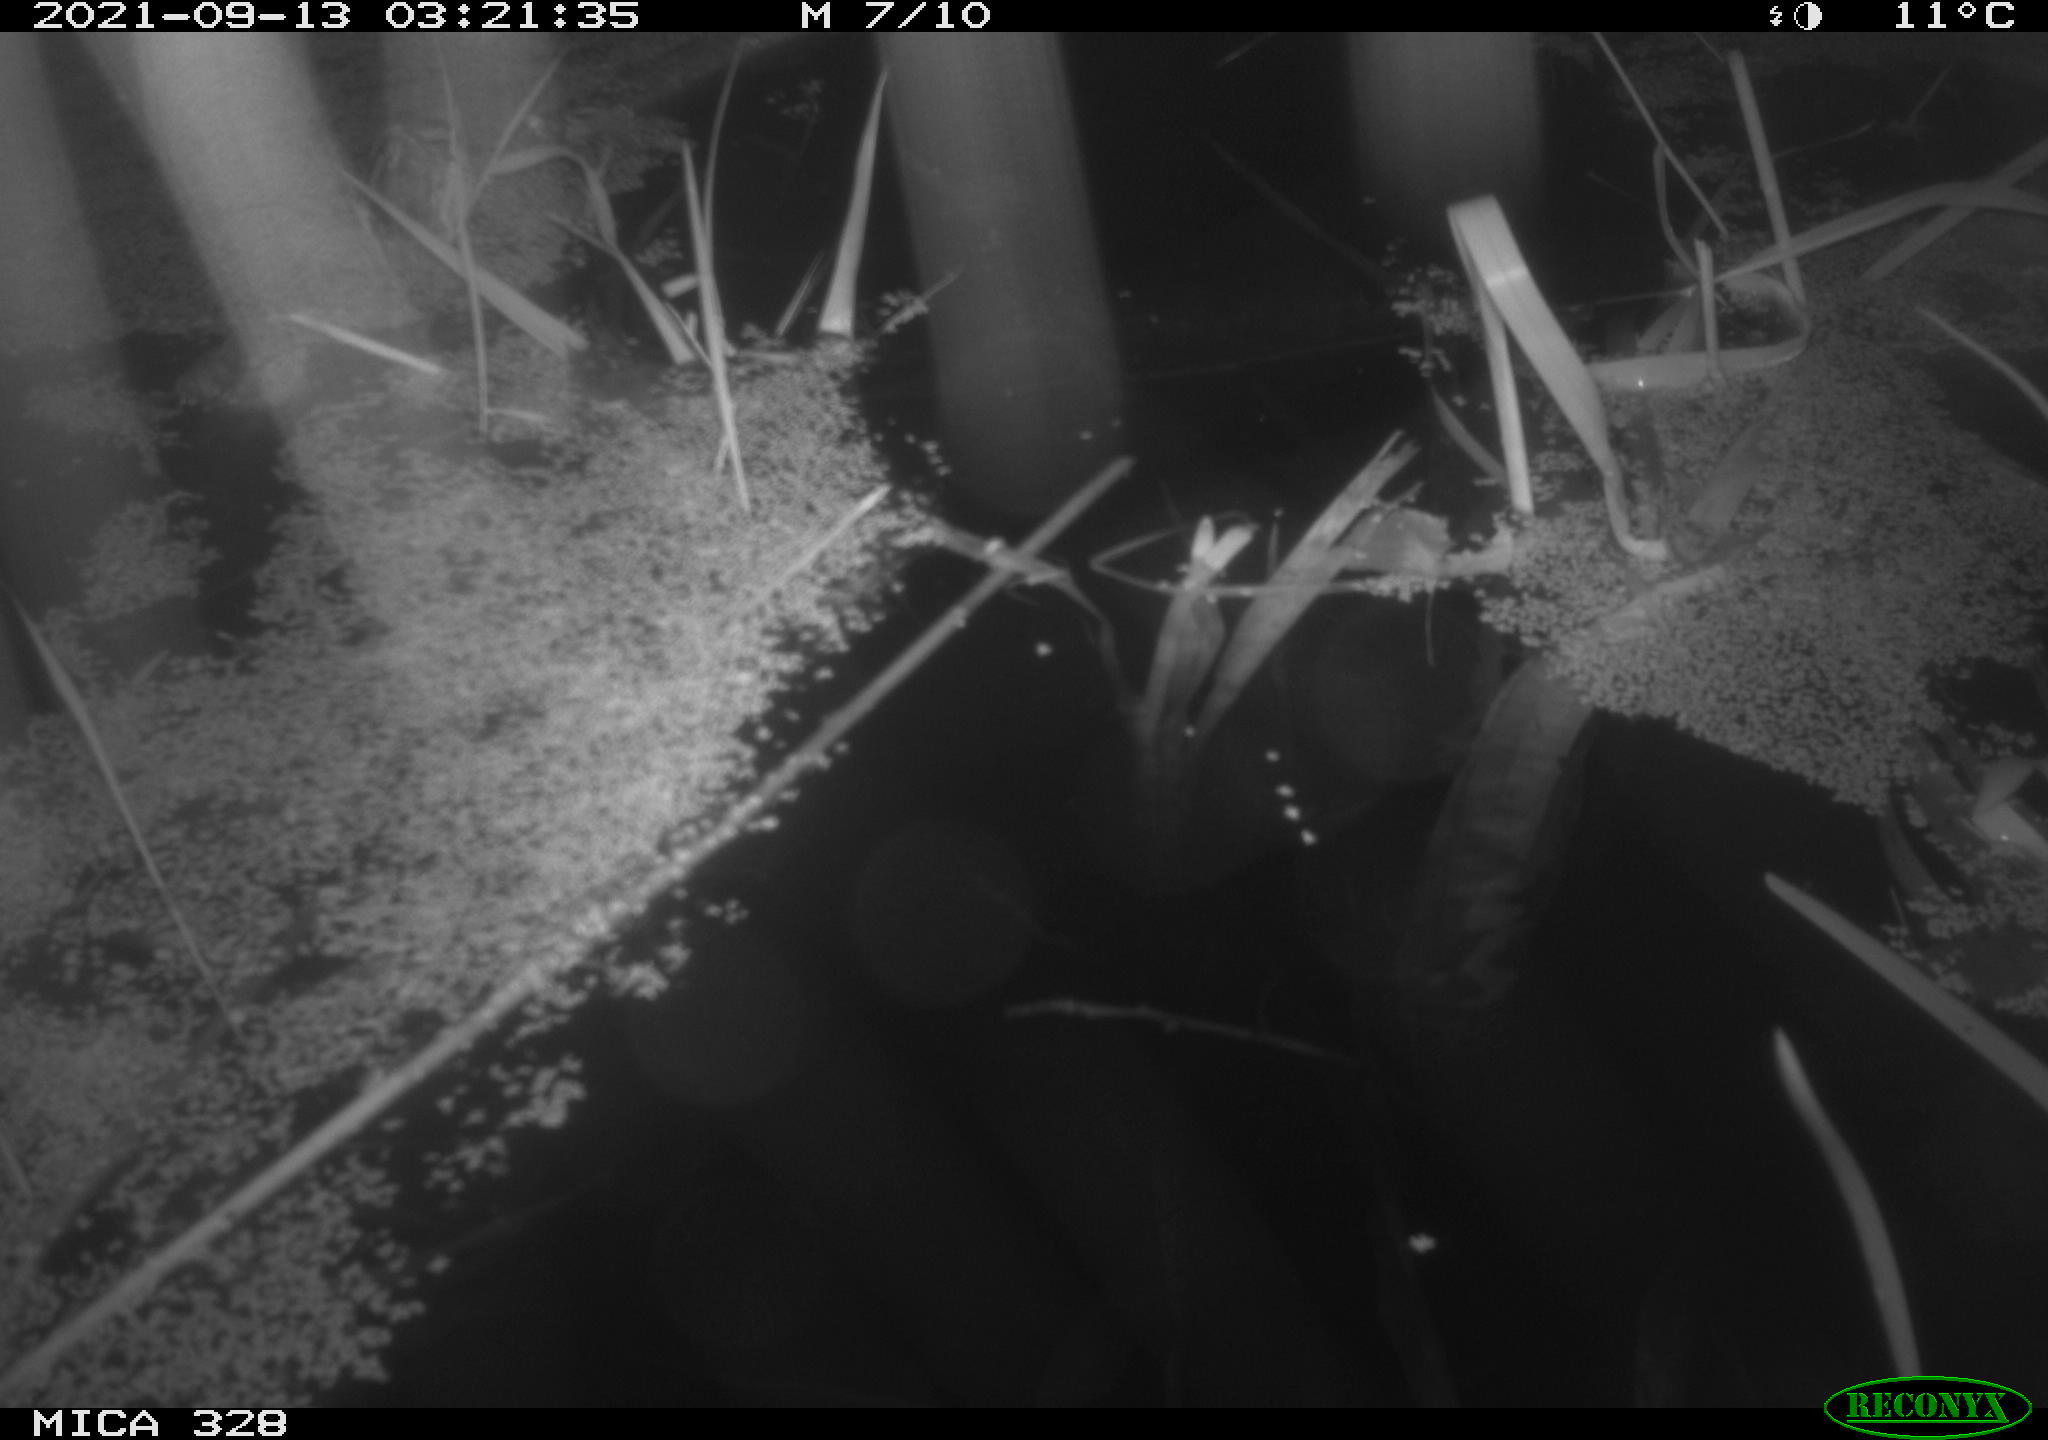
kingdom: Animalia
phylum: Chordata
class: Mammalia
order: Rodentia
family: Cricetidae
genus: Ondatra
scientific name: Ondatra zibethicus
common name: Muskrat
